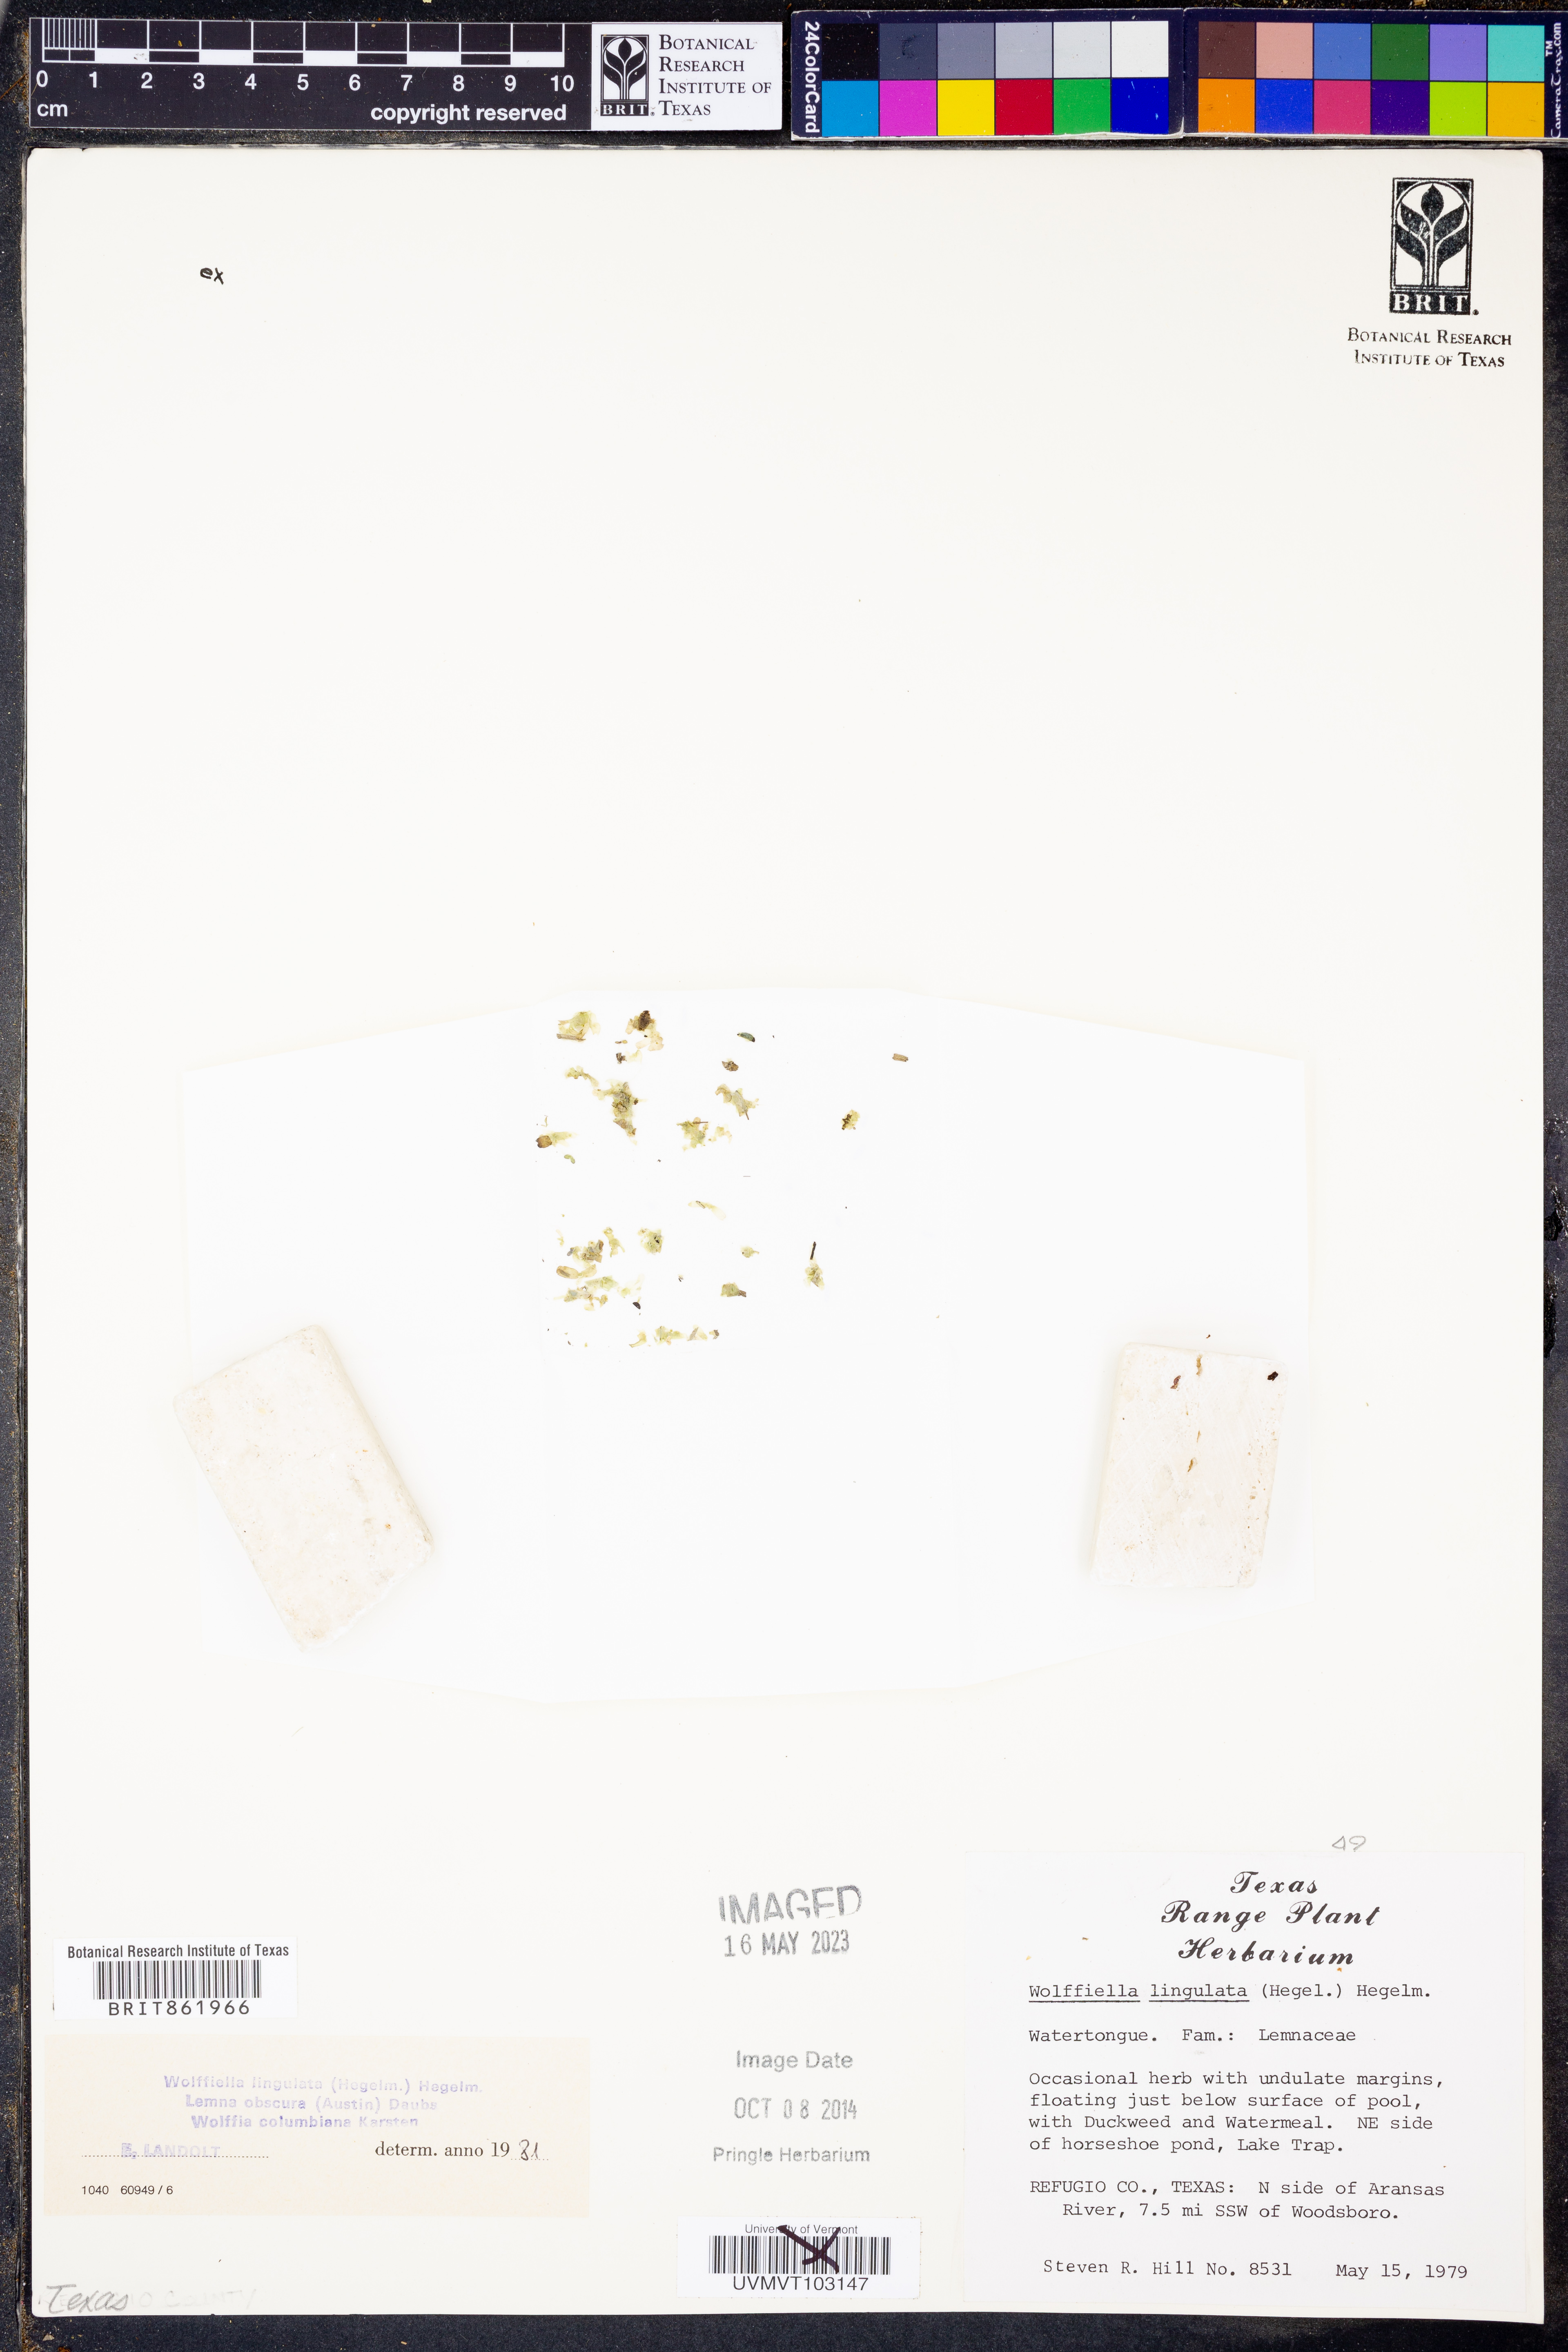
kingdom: Plantae
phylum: Tracheophyta
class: Liliopsida
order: Alismatales
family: Araceae
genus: Wolffiella
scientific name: Wolffiella lingulata
